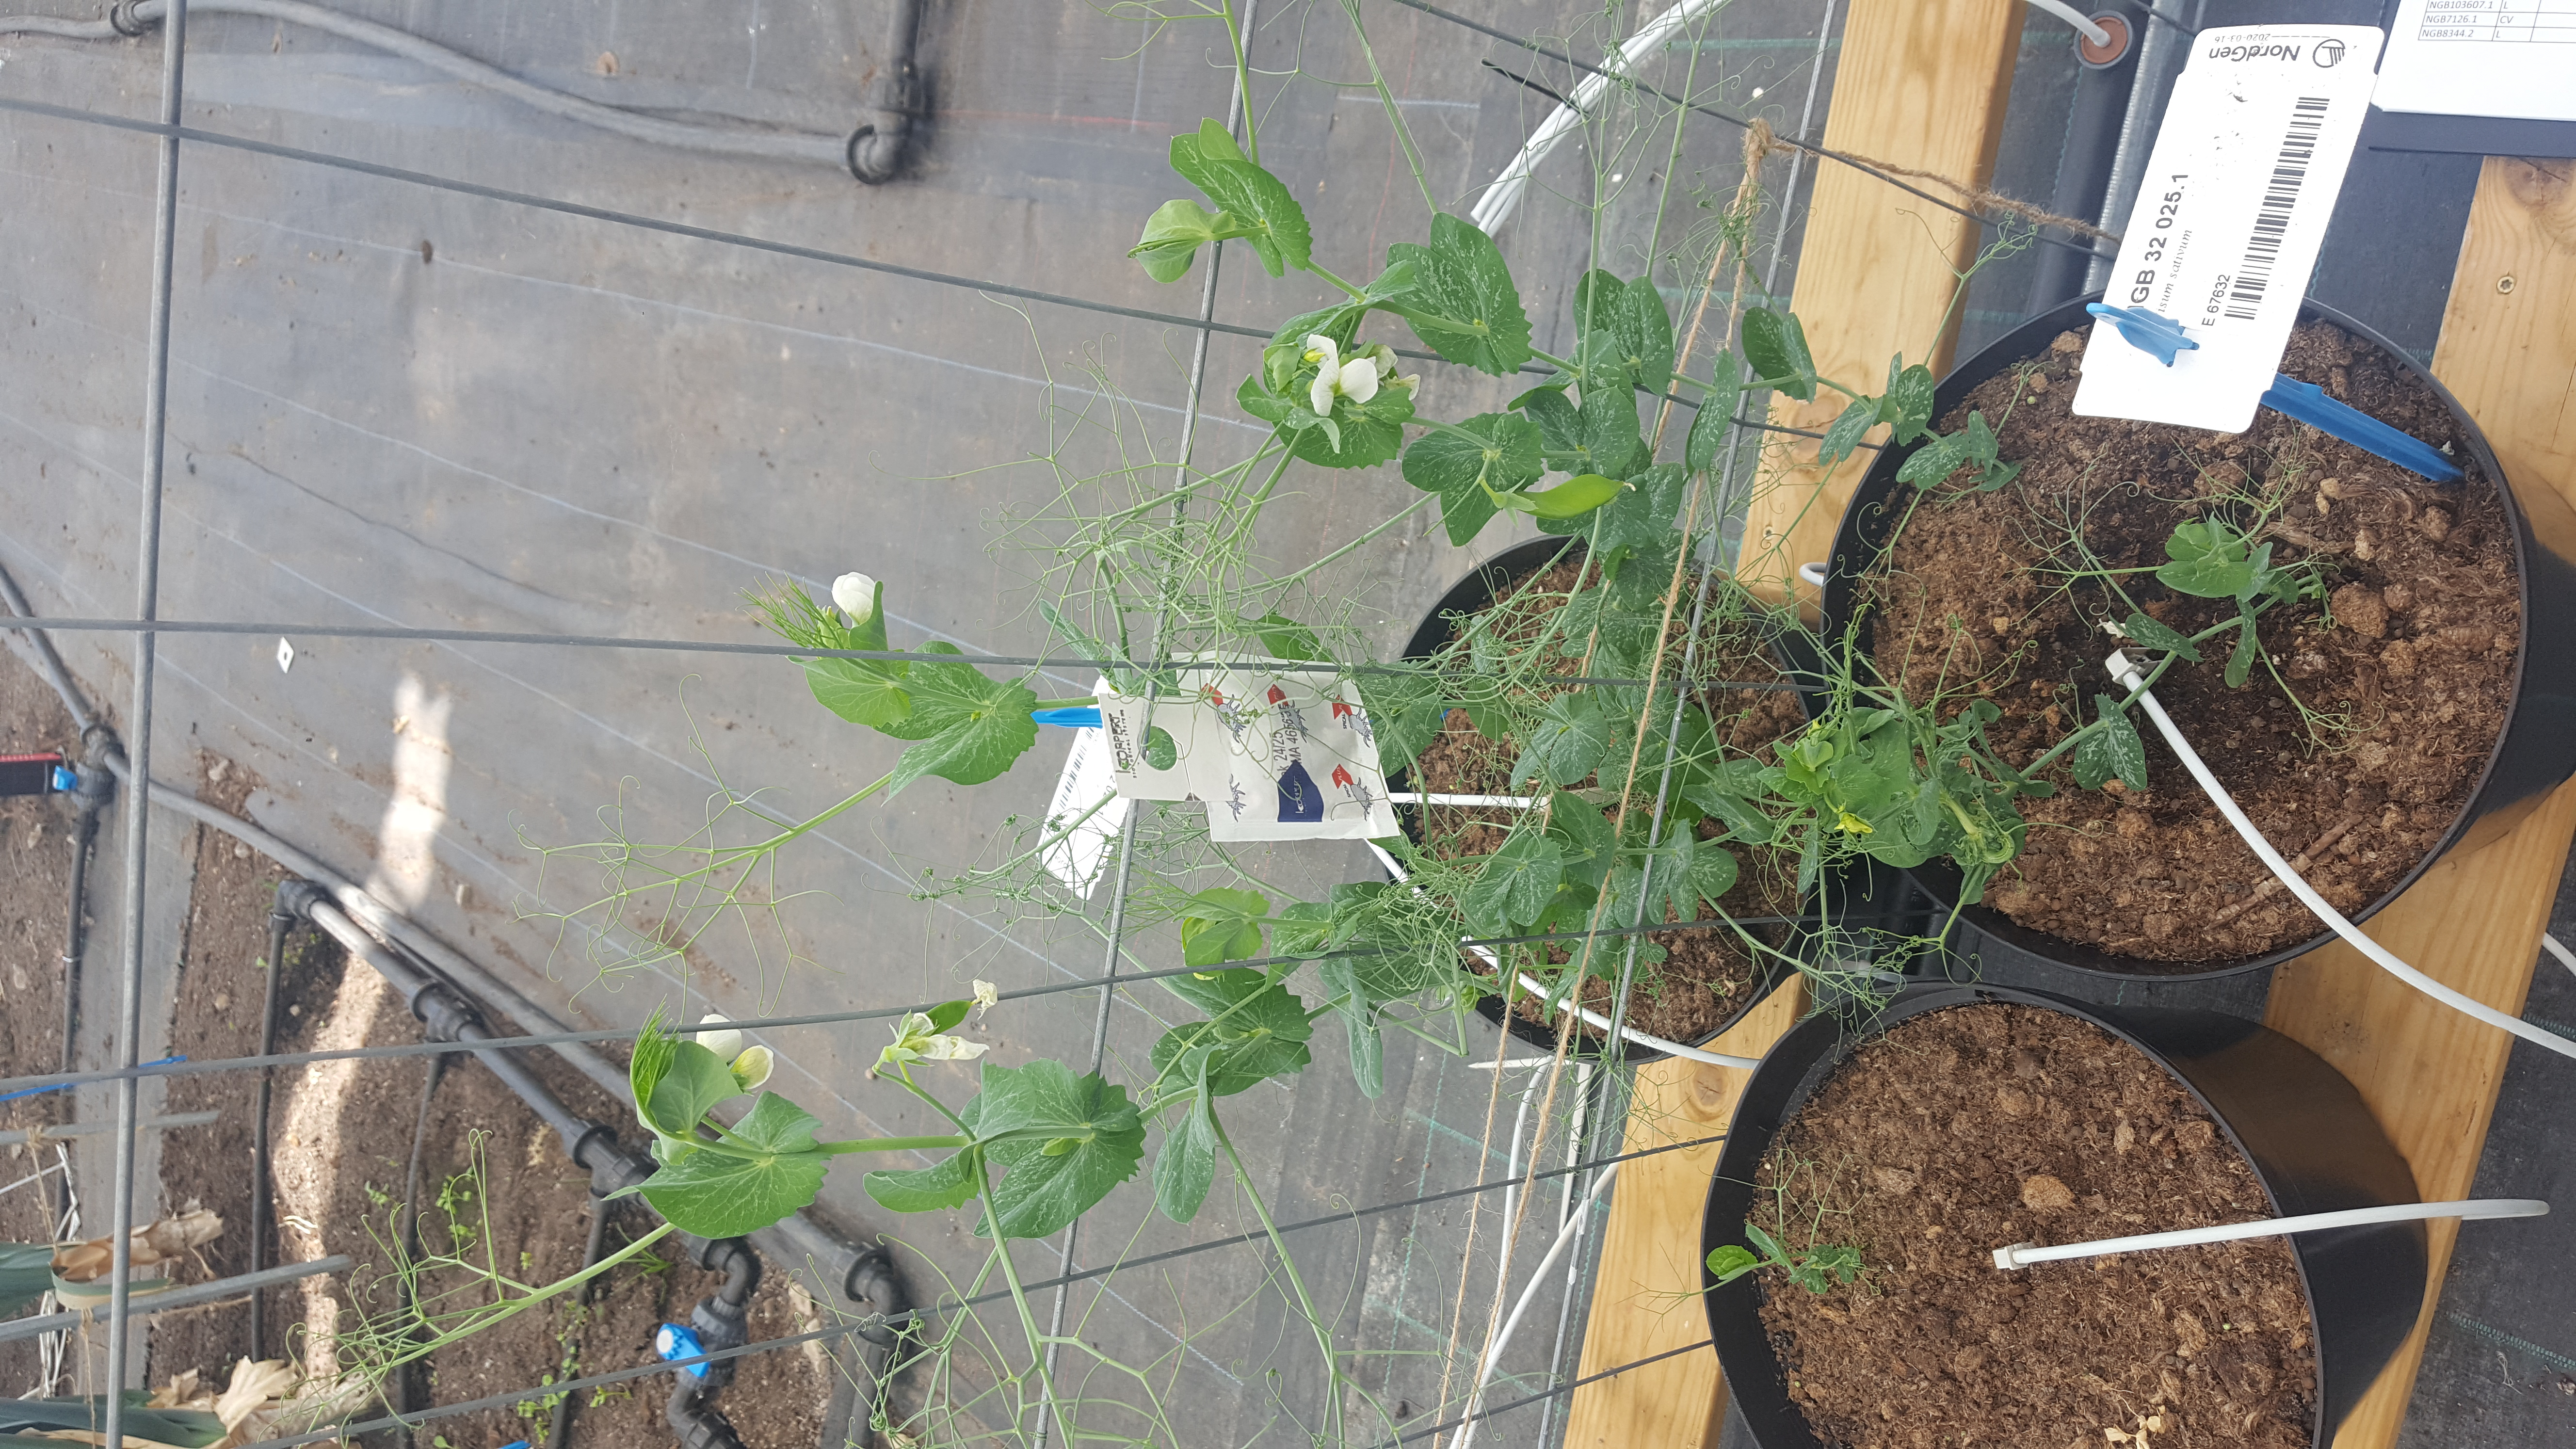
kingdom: Plantae
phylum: Tracheophyta
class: Magnoliopsida
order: Fabales
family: Fabaceae
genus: Lathyrus
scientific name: Lathyrus oleraceus
